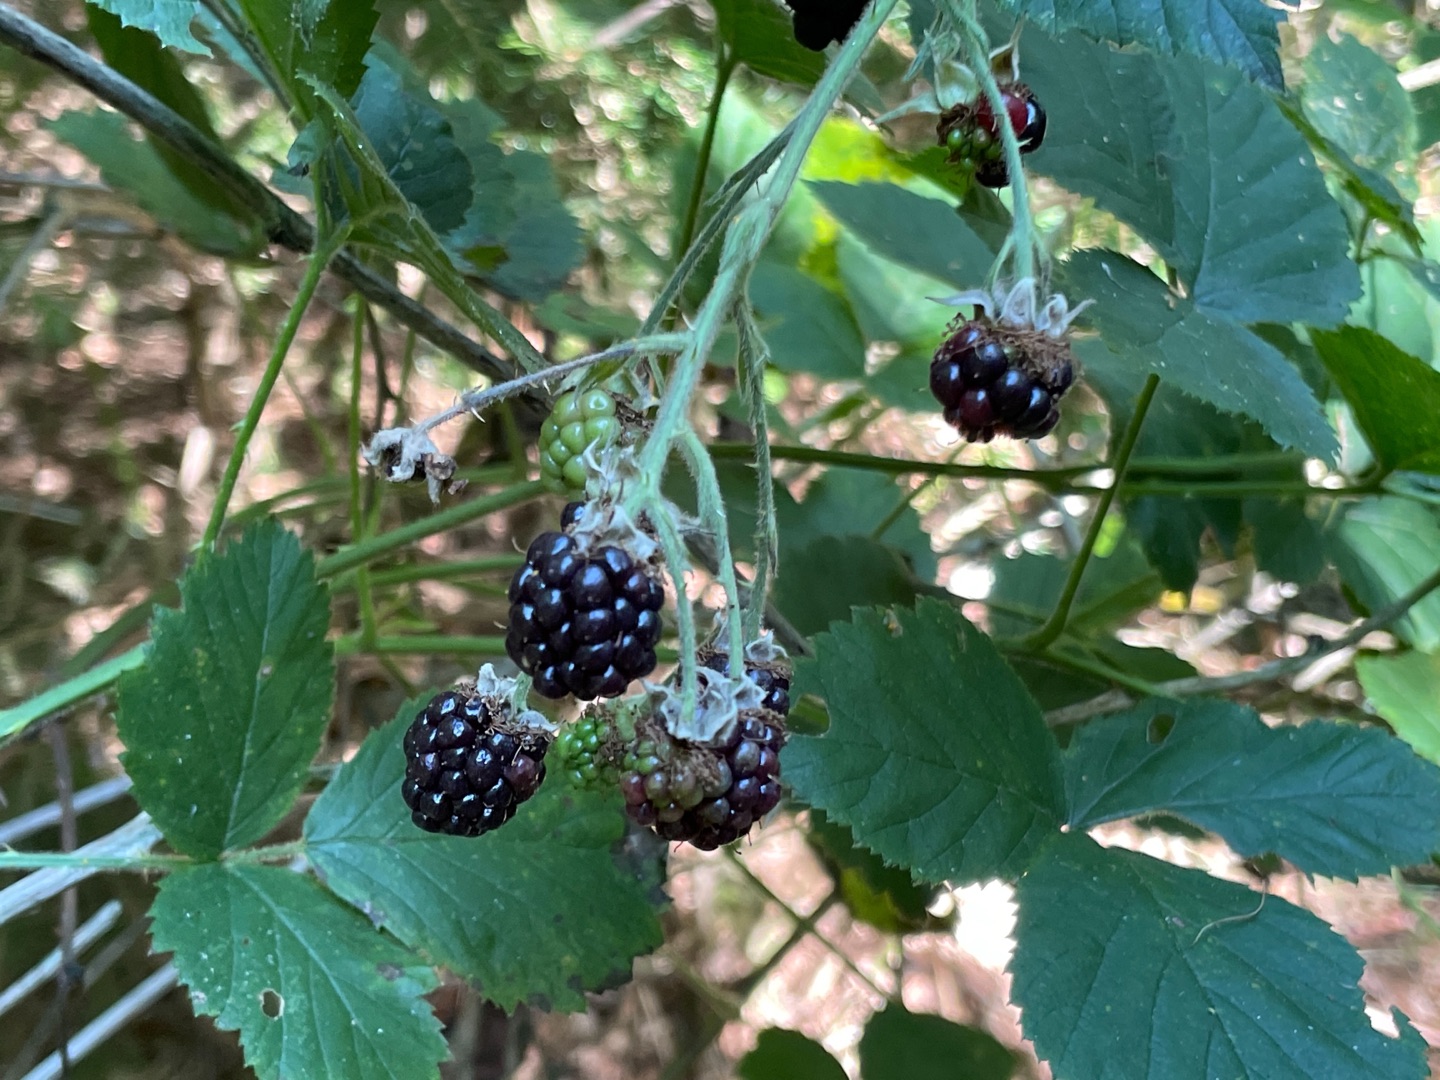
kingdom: Plantae
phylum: Tracheophyta
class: Magnoliopsida
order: Rosales
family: Rosaceae
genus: Rubus
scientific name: Rubus
